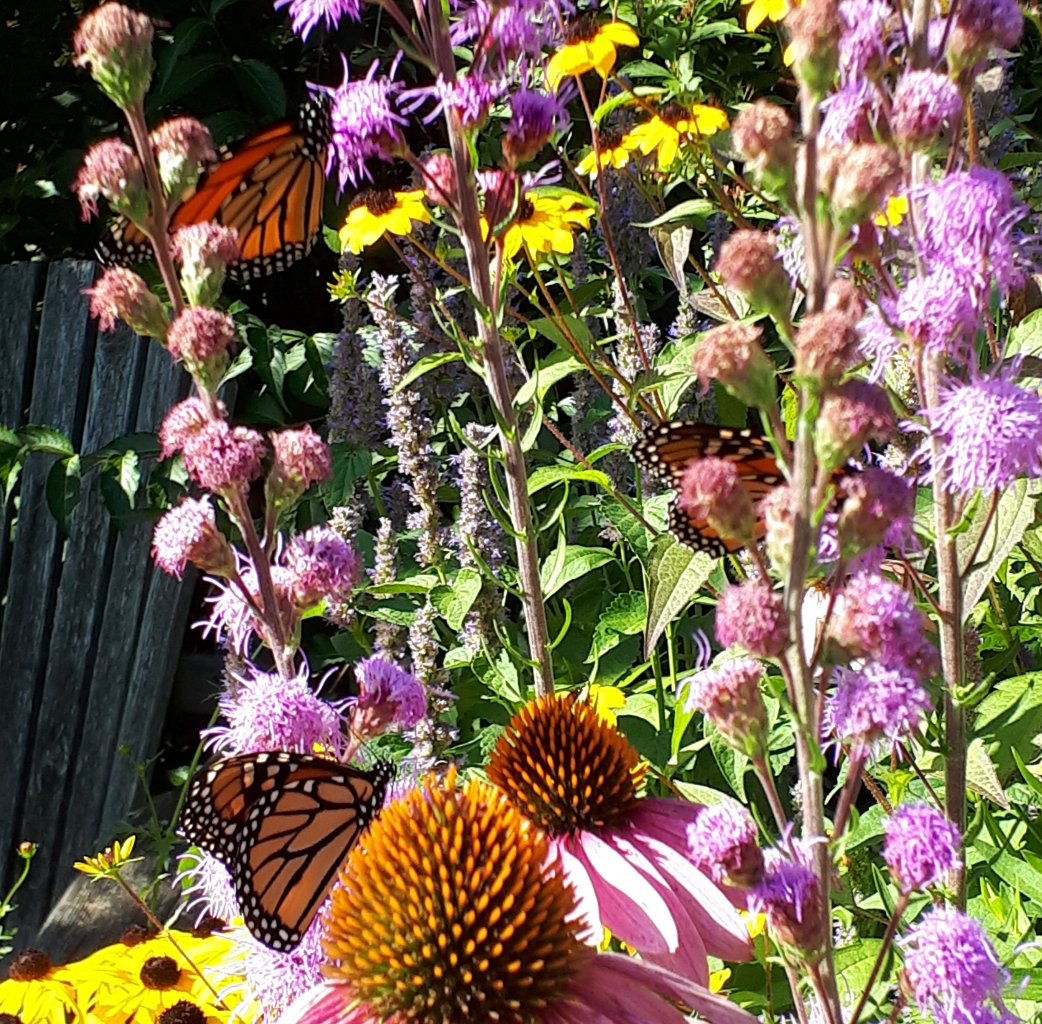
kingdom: Animalia
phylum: Arthropoda
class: Insecta
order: Lepidoptera
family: Nymphalidae
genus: Danaus
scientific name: Danaus plexippus
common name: Monarch
